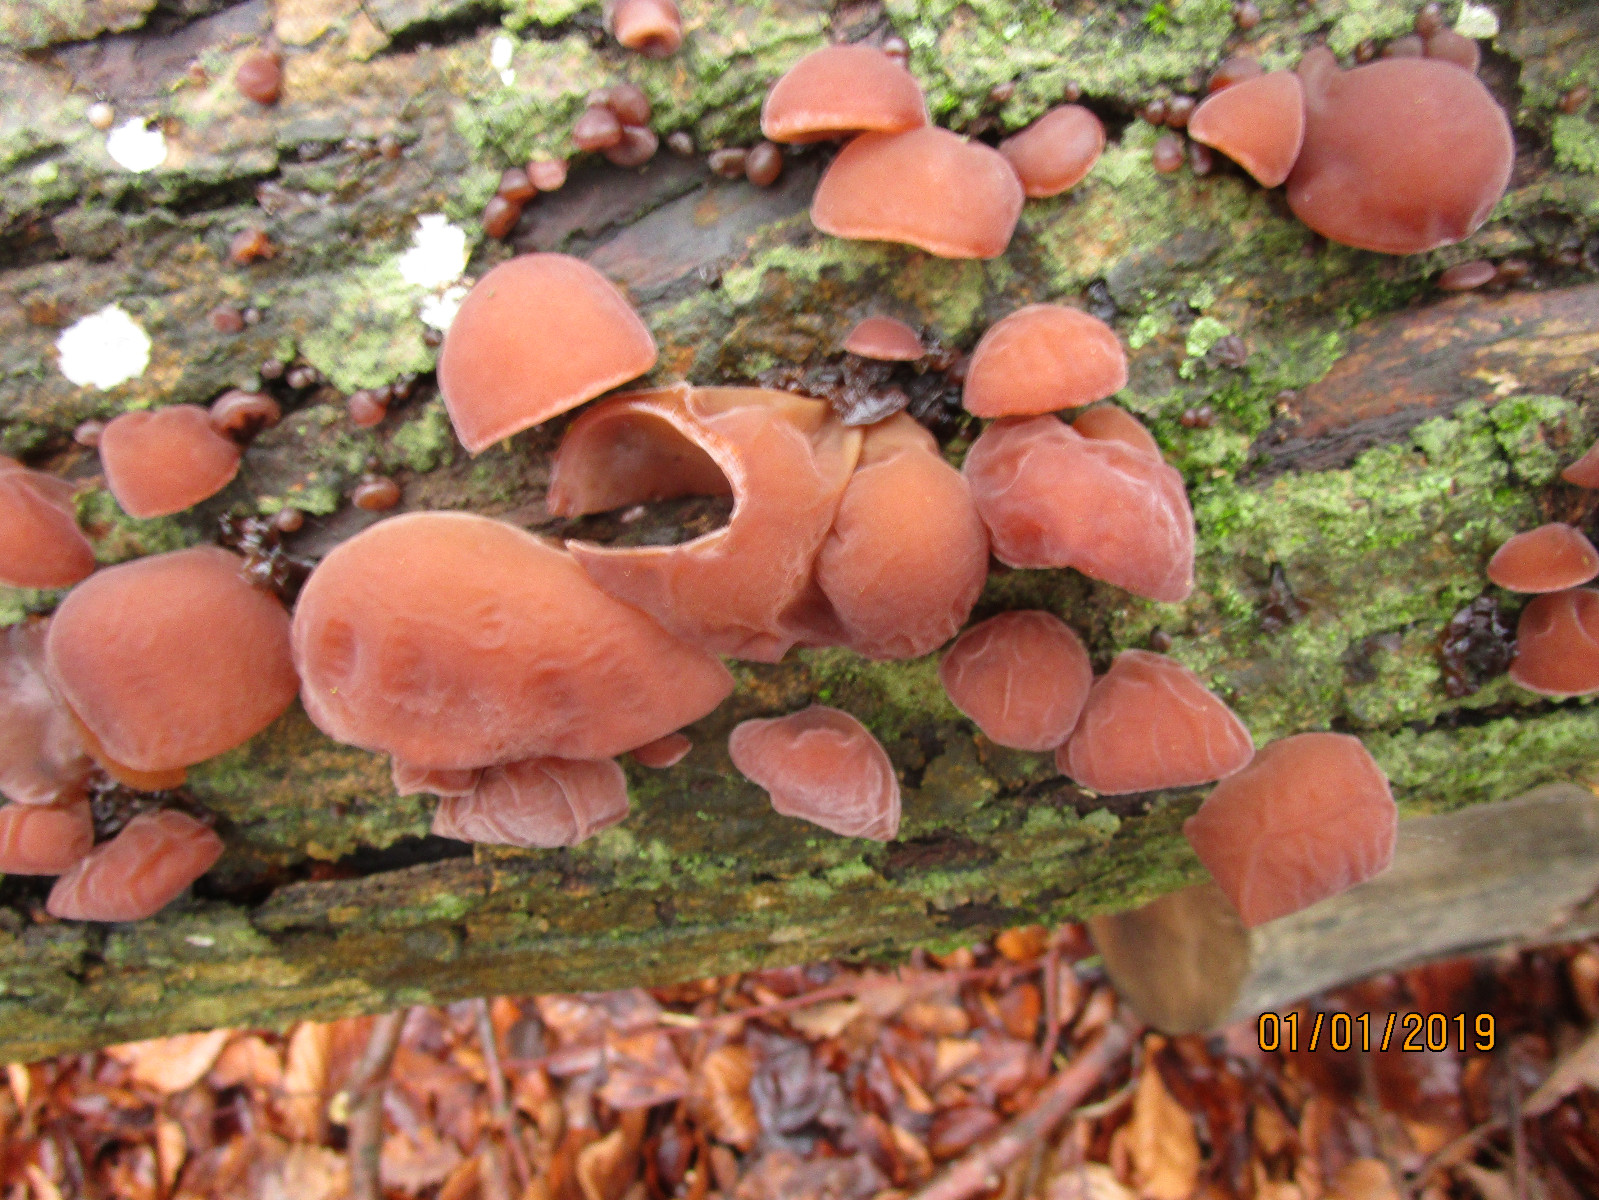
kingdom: Fungi
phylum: Basidiomycota
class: Agaricomycetes
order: Auriculariales
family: Auriculariaceae
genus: Auricularia
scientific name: Auricularia auricula-judae
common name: almindelig judasøre
